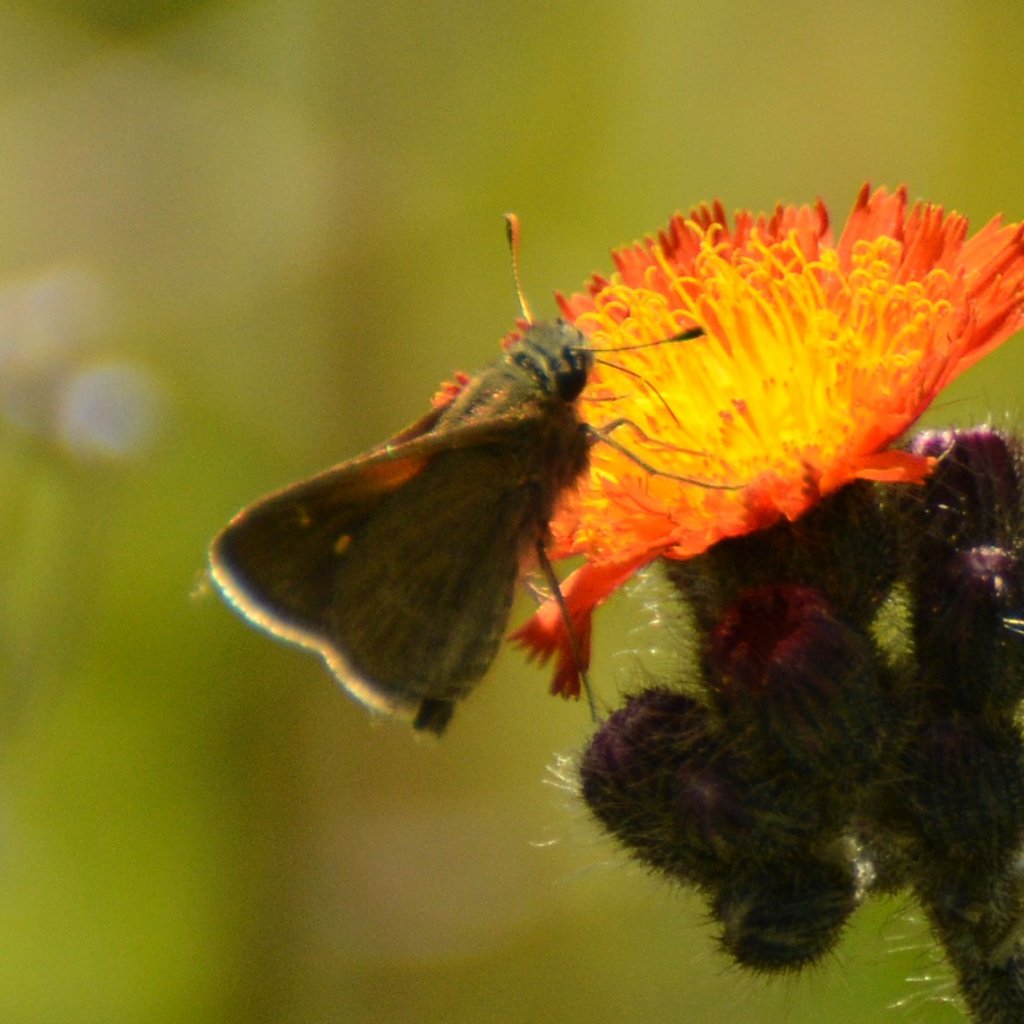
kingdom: Animalia
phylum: Arthropoda
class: Insecta
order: Lepidoptera
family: Hesperiidae
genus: Polites
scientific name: Polites themistocles
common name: Tawny-edged Skipper
